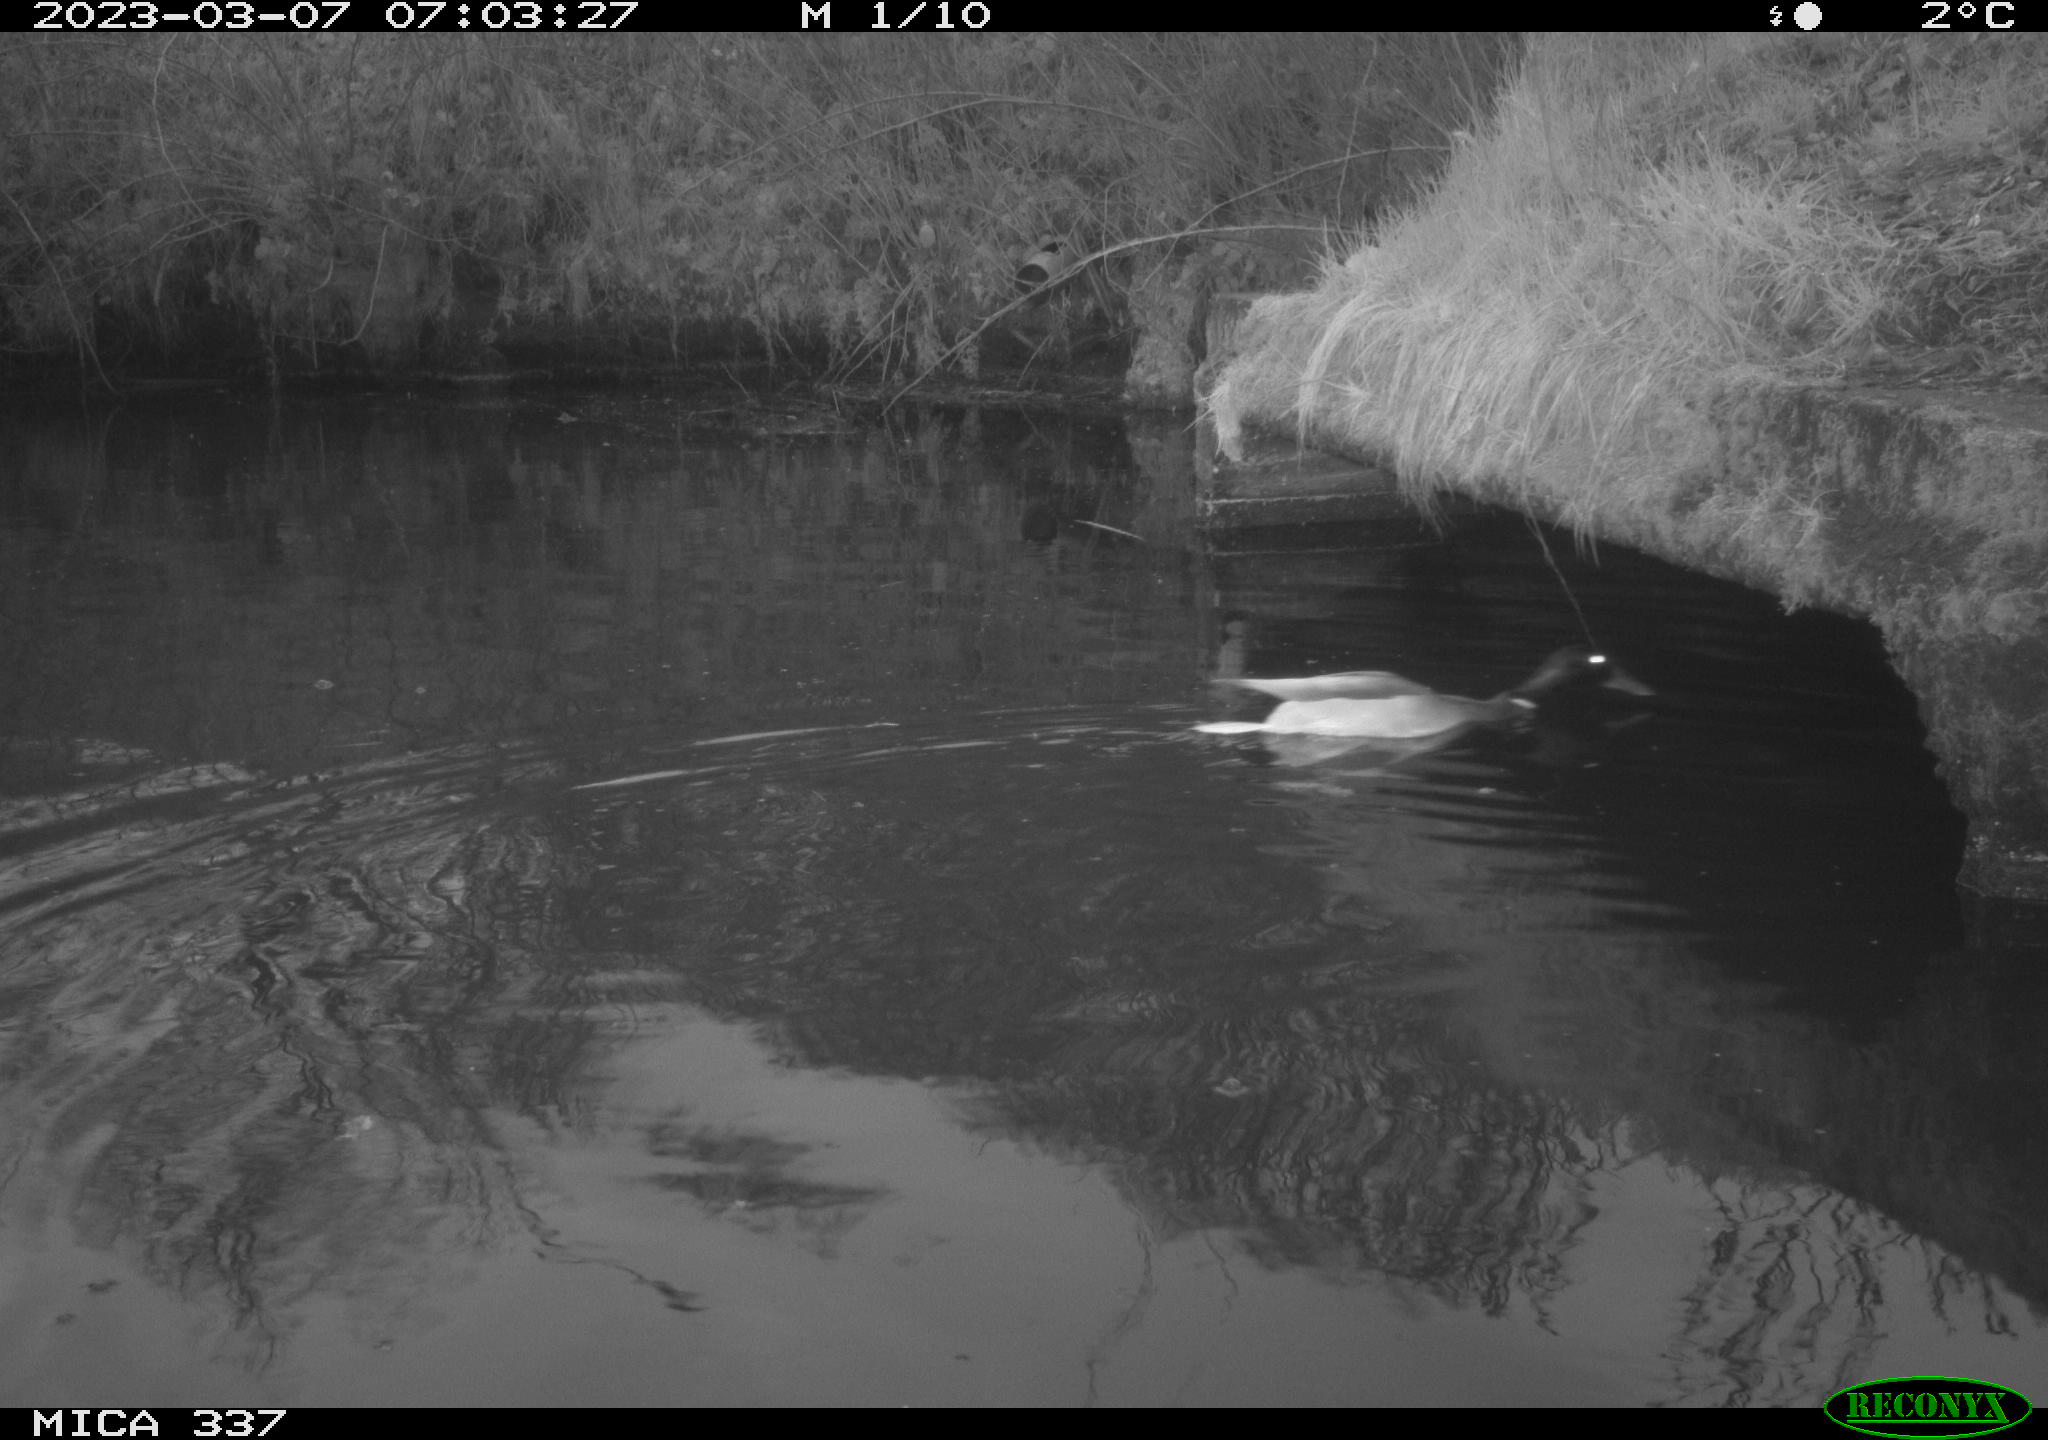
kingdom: Animalia
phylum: Chordata
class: Aves
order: Anseriformes
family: Anatidae
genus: Anas
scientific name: Anas
